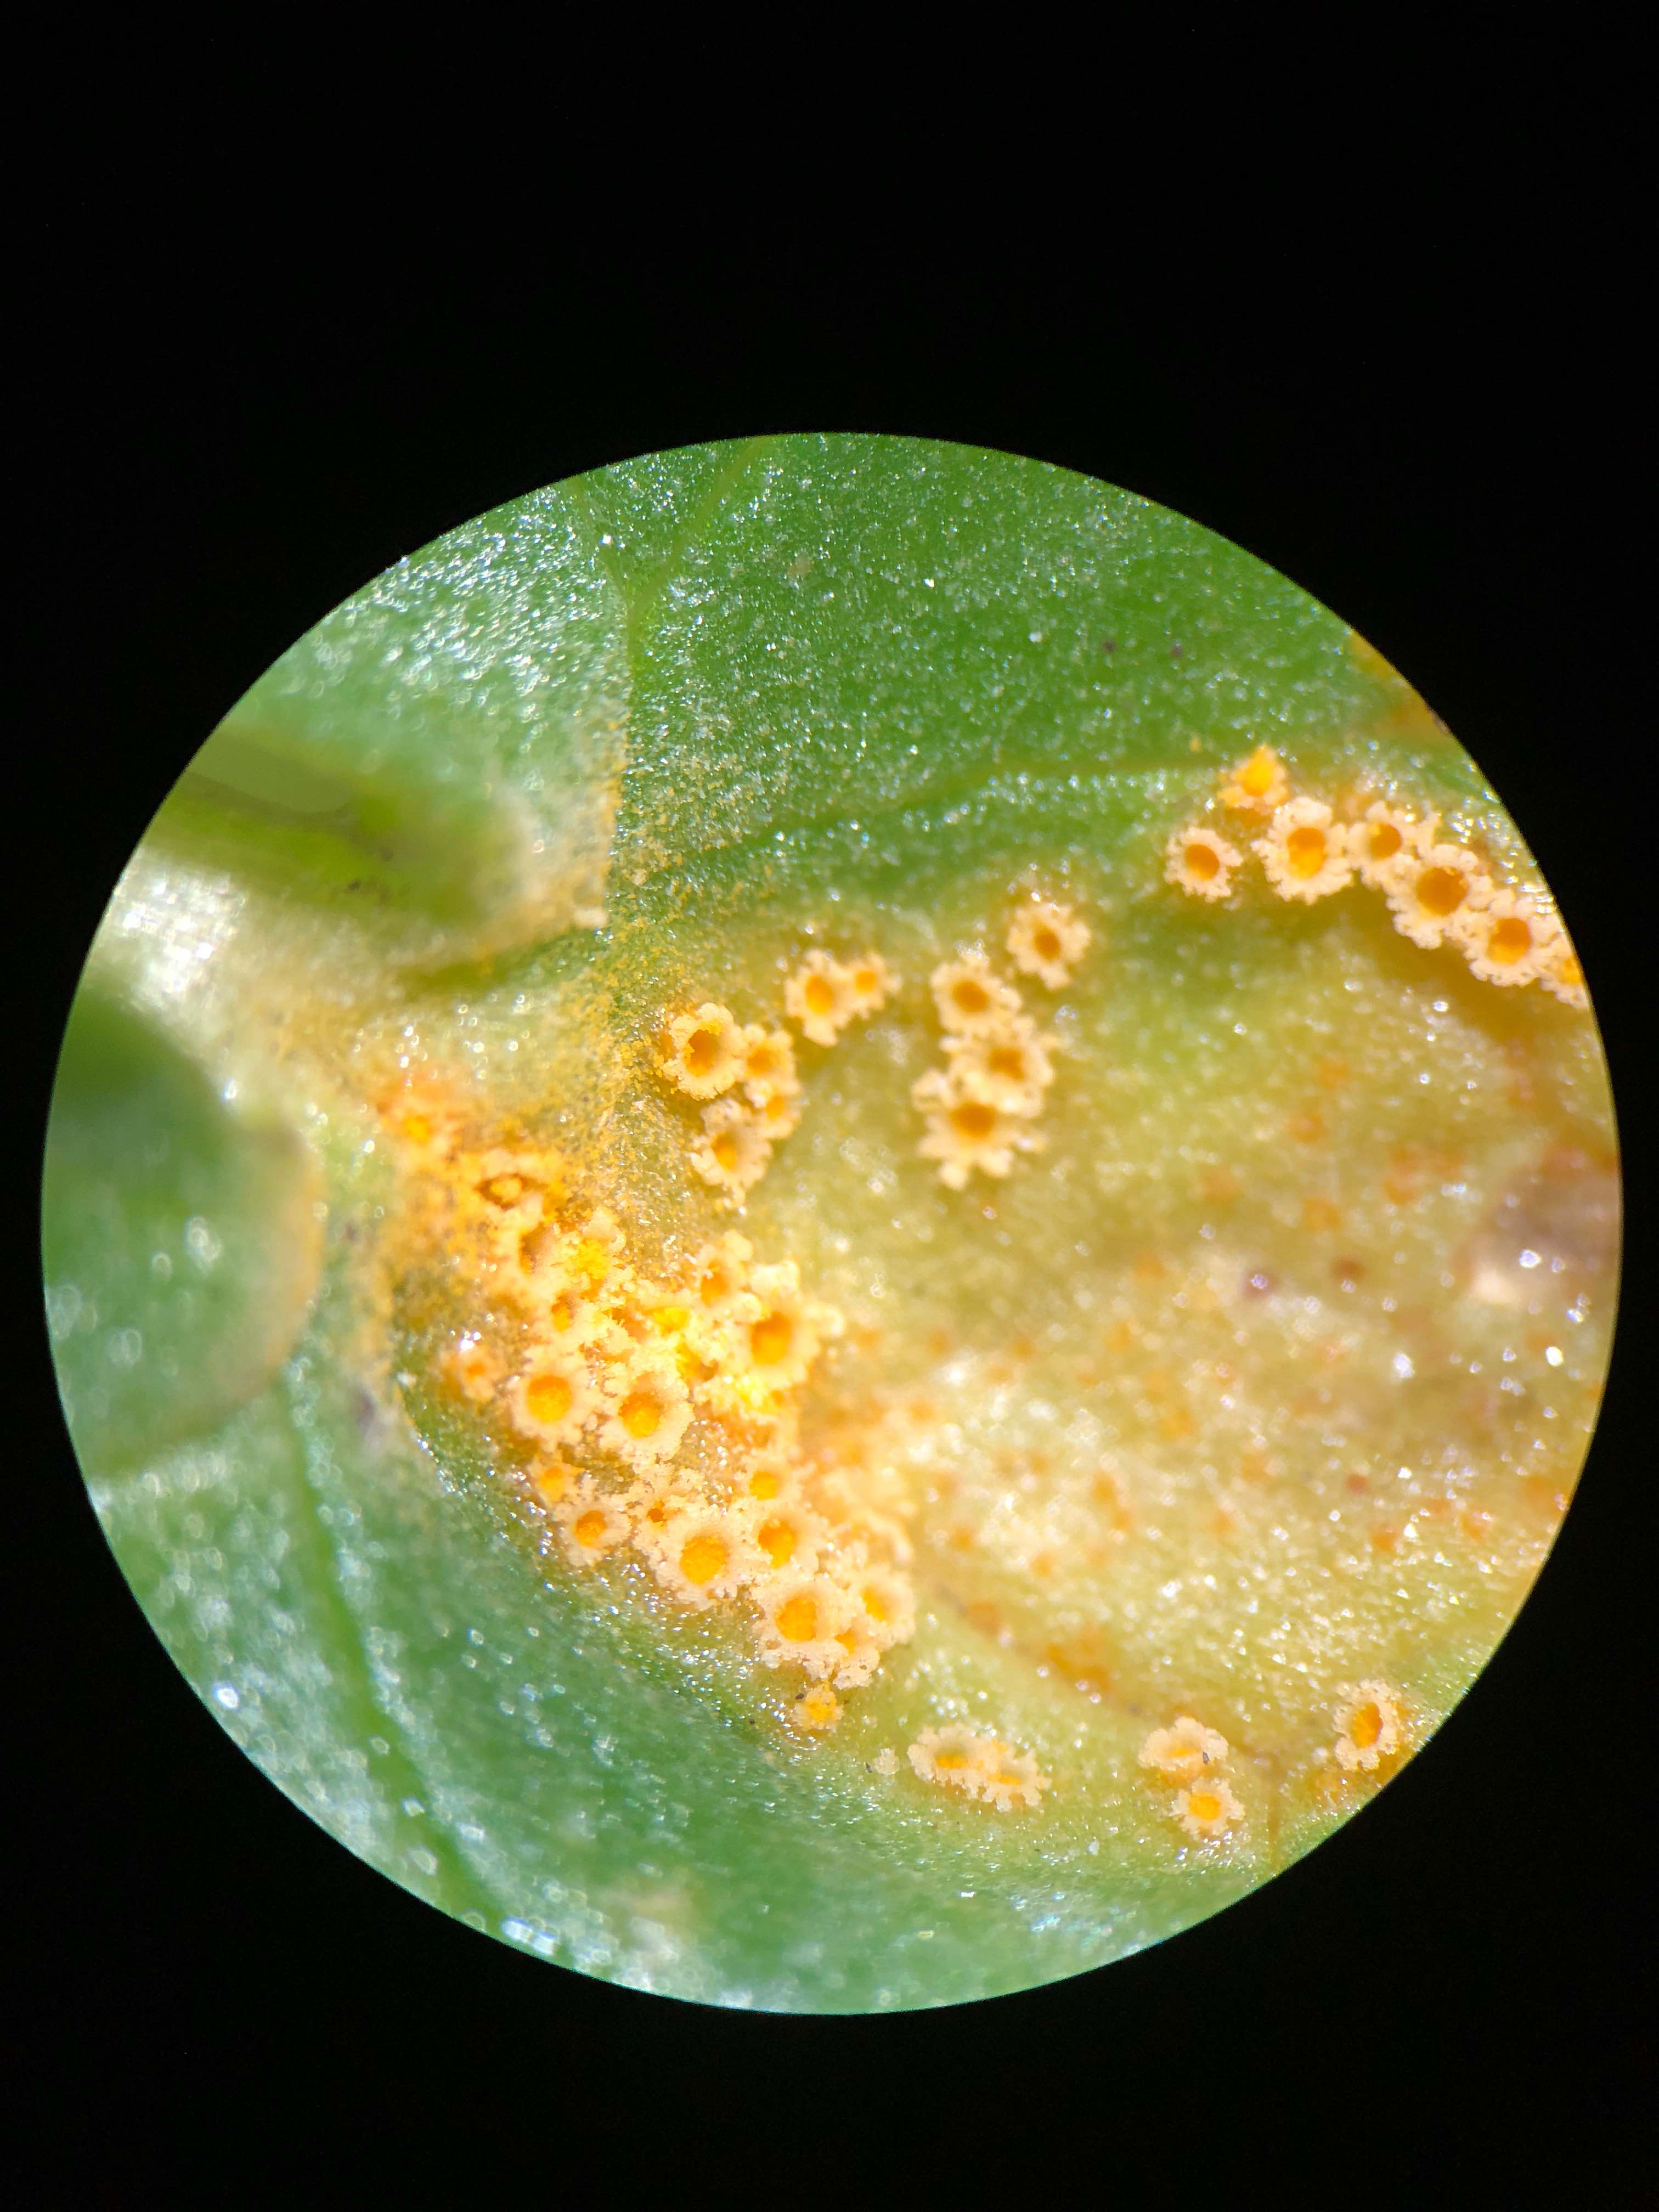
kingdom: Fungi
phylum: Basidiomycota
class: Pucciniomycetes
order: Pucciniales
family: Pucciniaceae
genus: Uromyces
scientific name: Uromyces dactylidis
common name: ranunkel-encellerust
